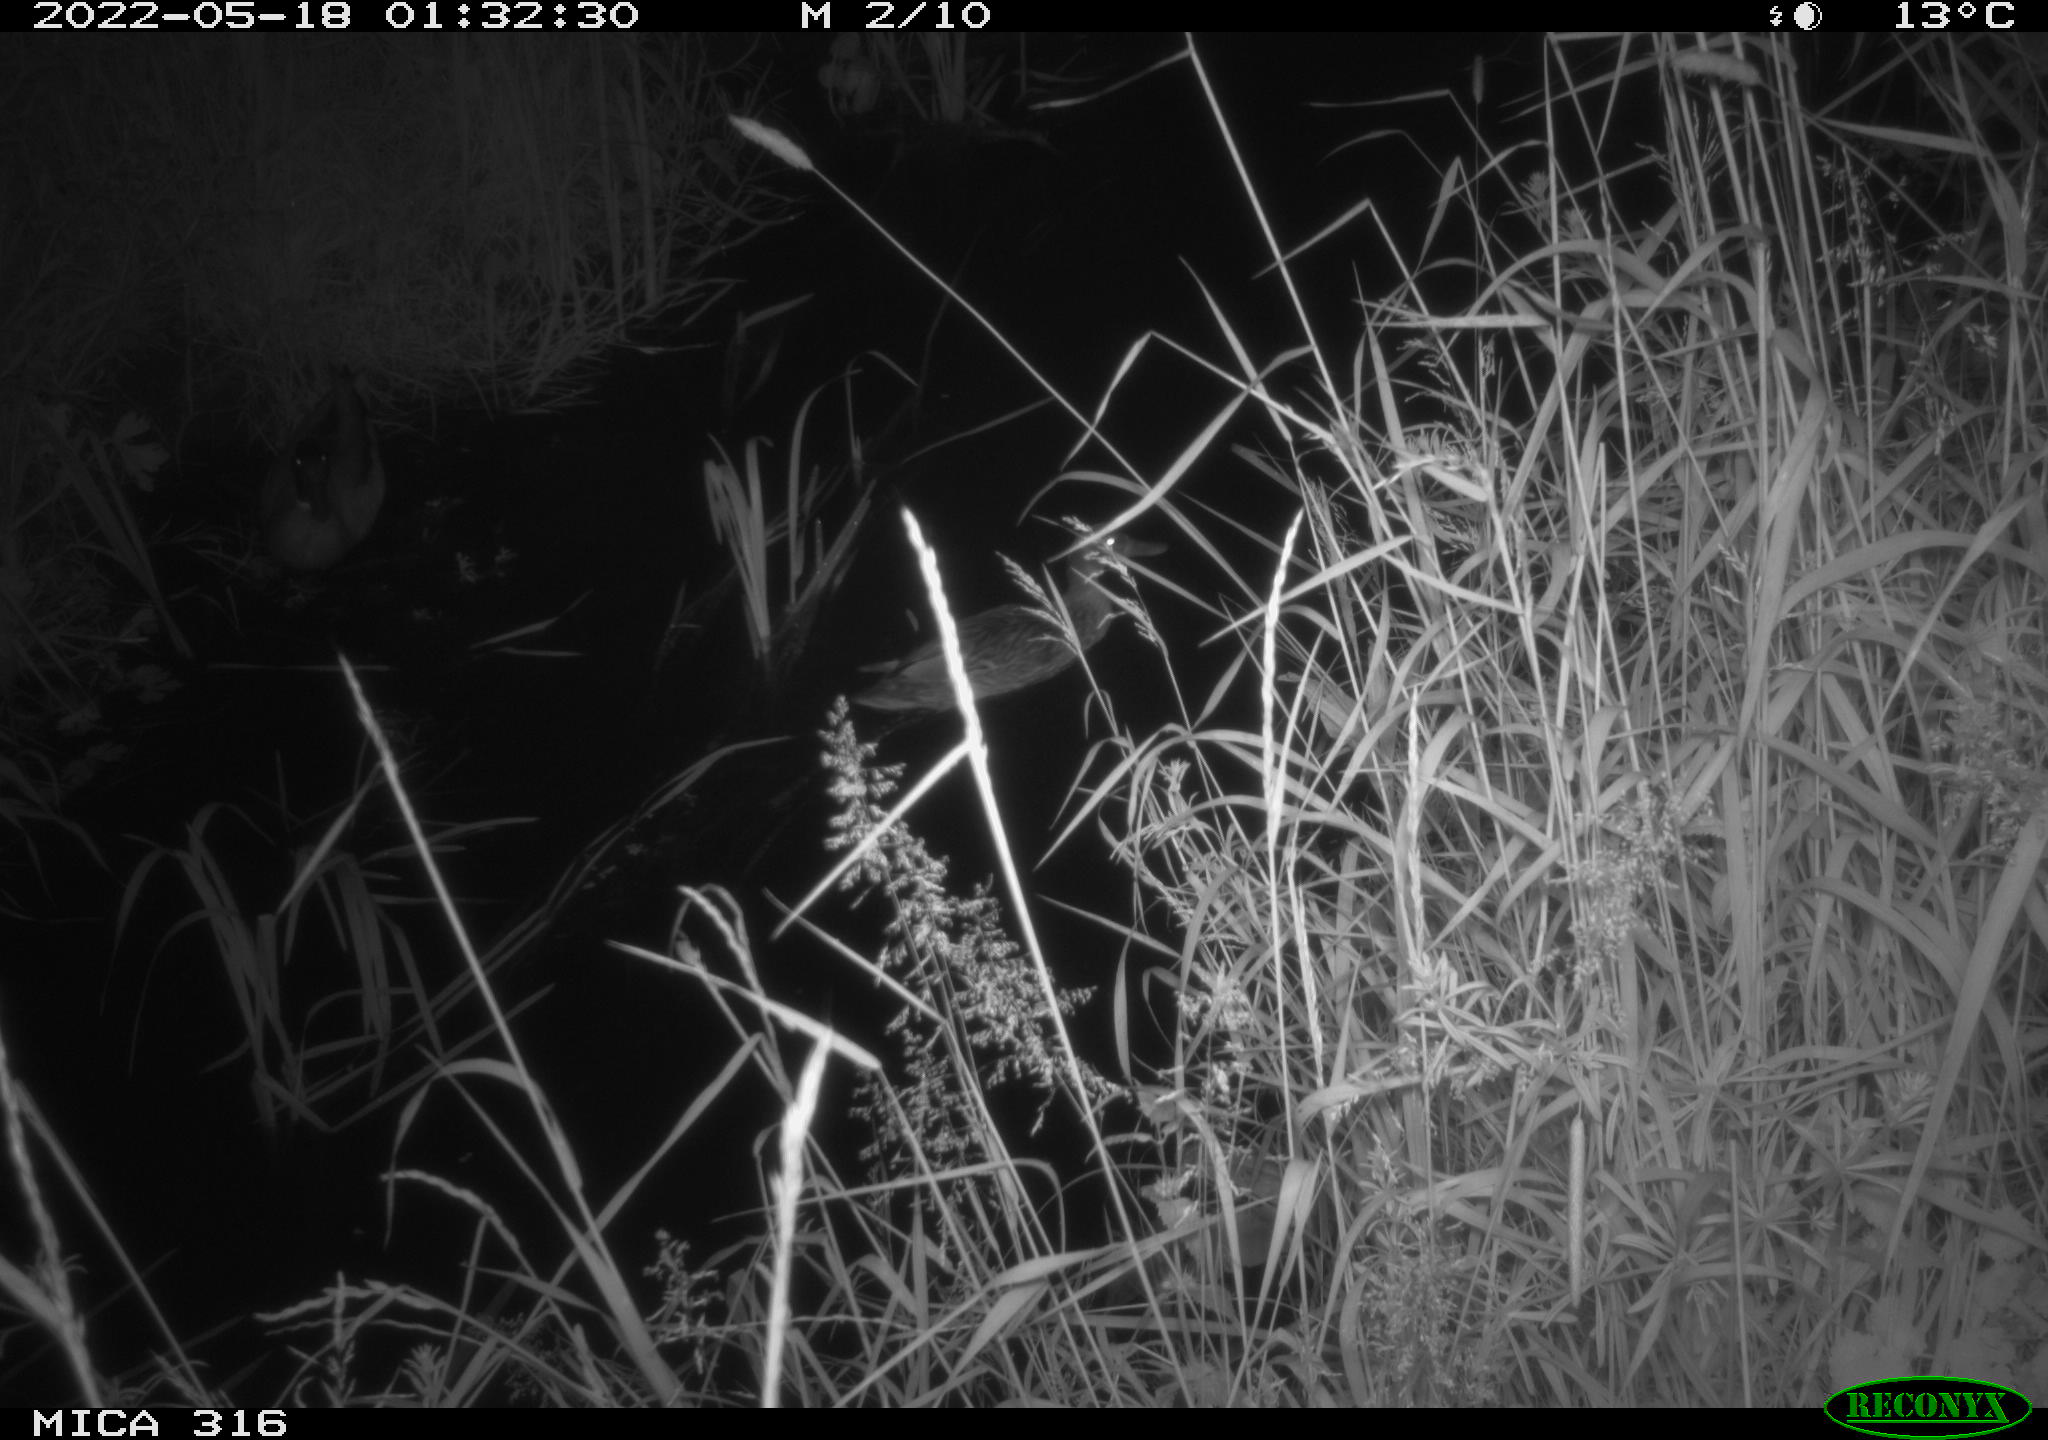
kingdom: Animalia
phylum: Chordata
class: Aves
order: Anseriformes
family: Anatidae
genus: Anas
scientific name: Anas
